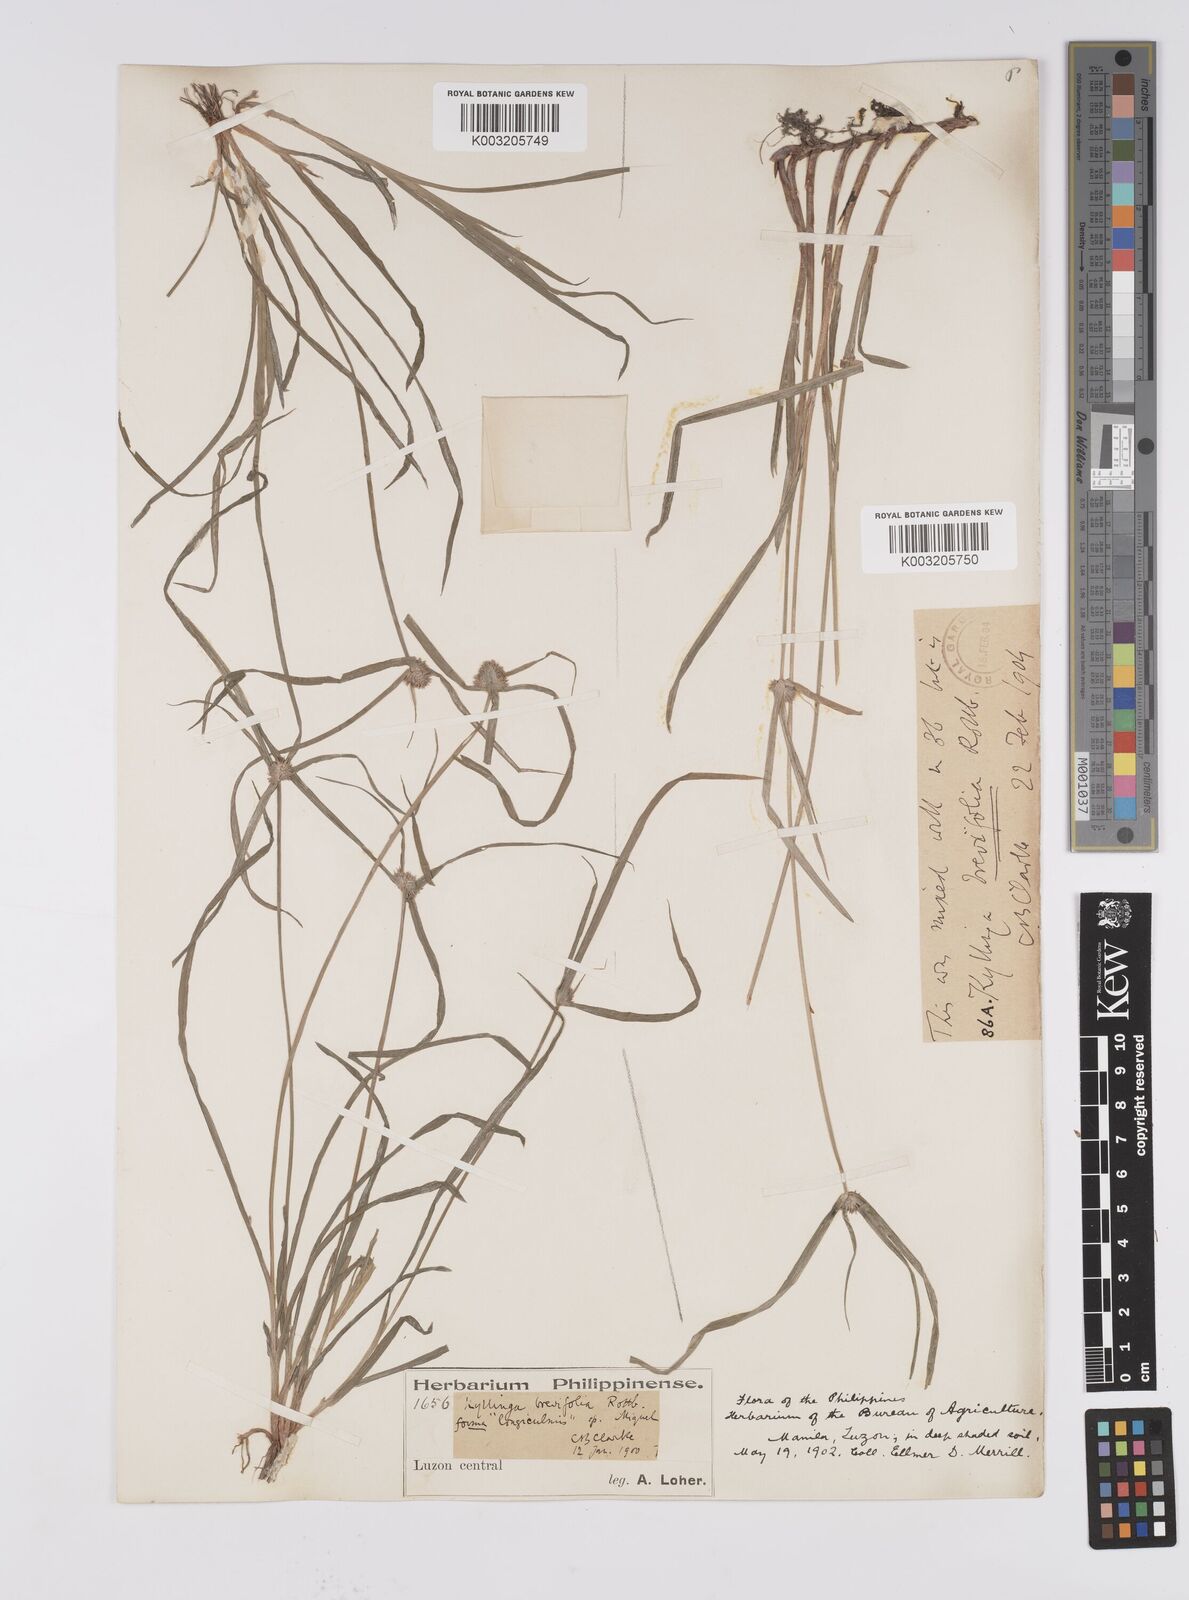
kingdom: Plantae
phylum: Tracheophyta
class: Liliopsida
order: Poales
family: Cyperaceae
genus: Cyperus
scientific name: Cyperus brevifolius
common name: Globe kyllinga
